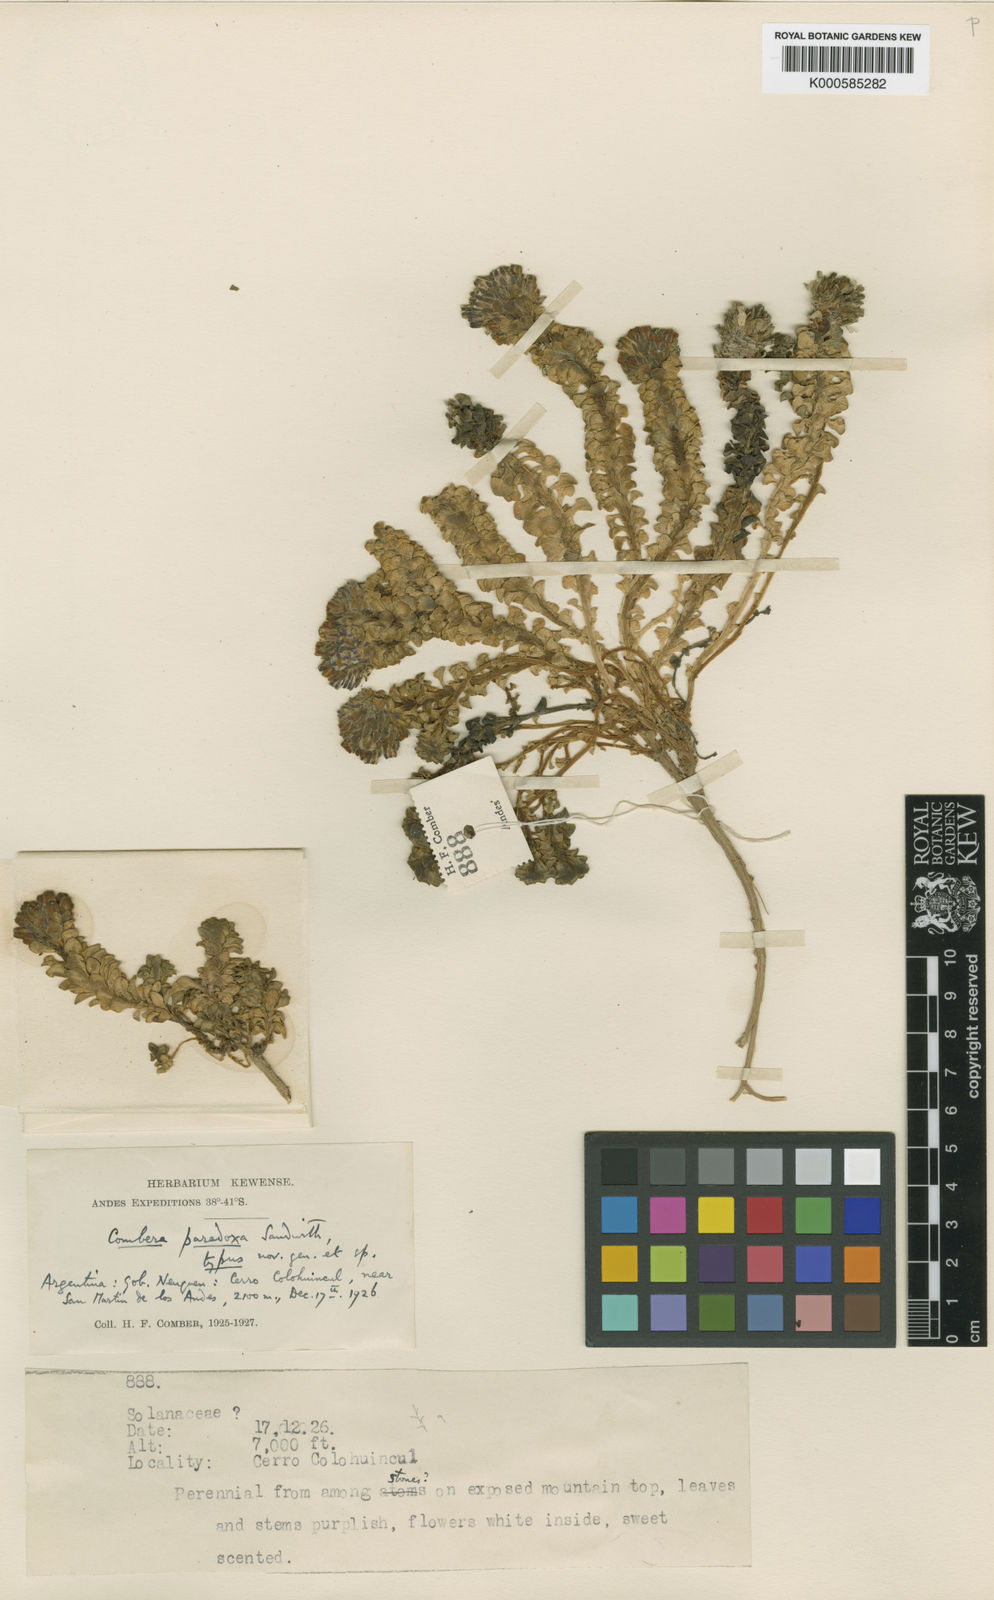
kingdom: Plantae
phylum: Tracheophyta
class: Magnoliopsida
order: Solanales
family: Solanaceae
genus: Combera
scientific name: Combera paradoxa
